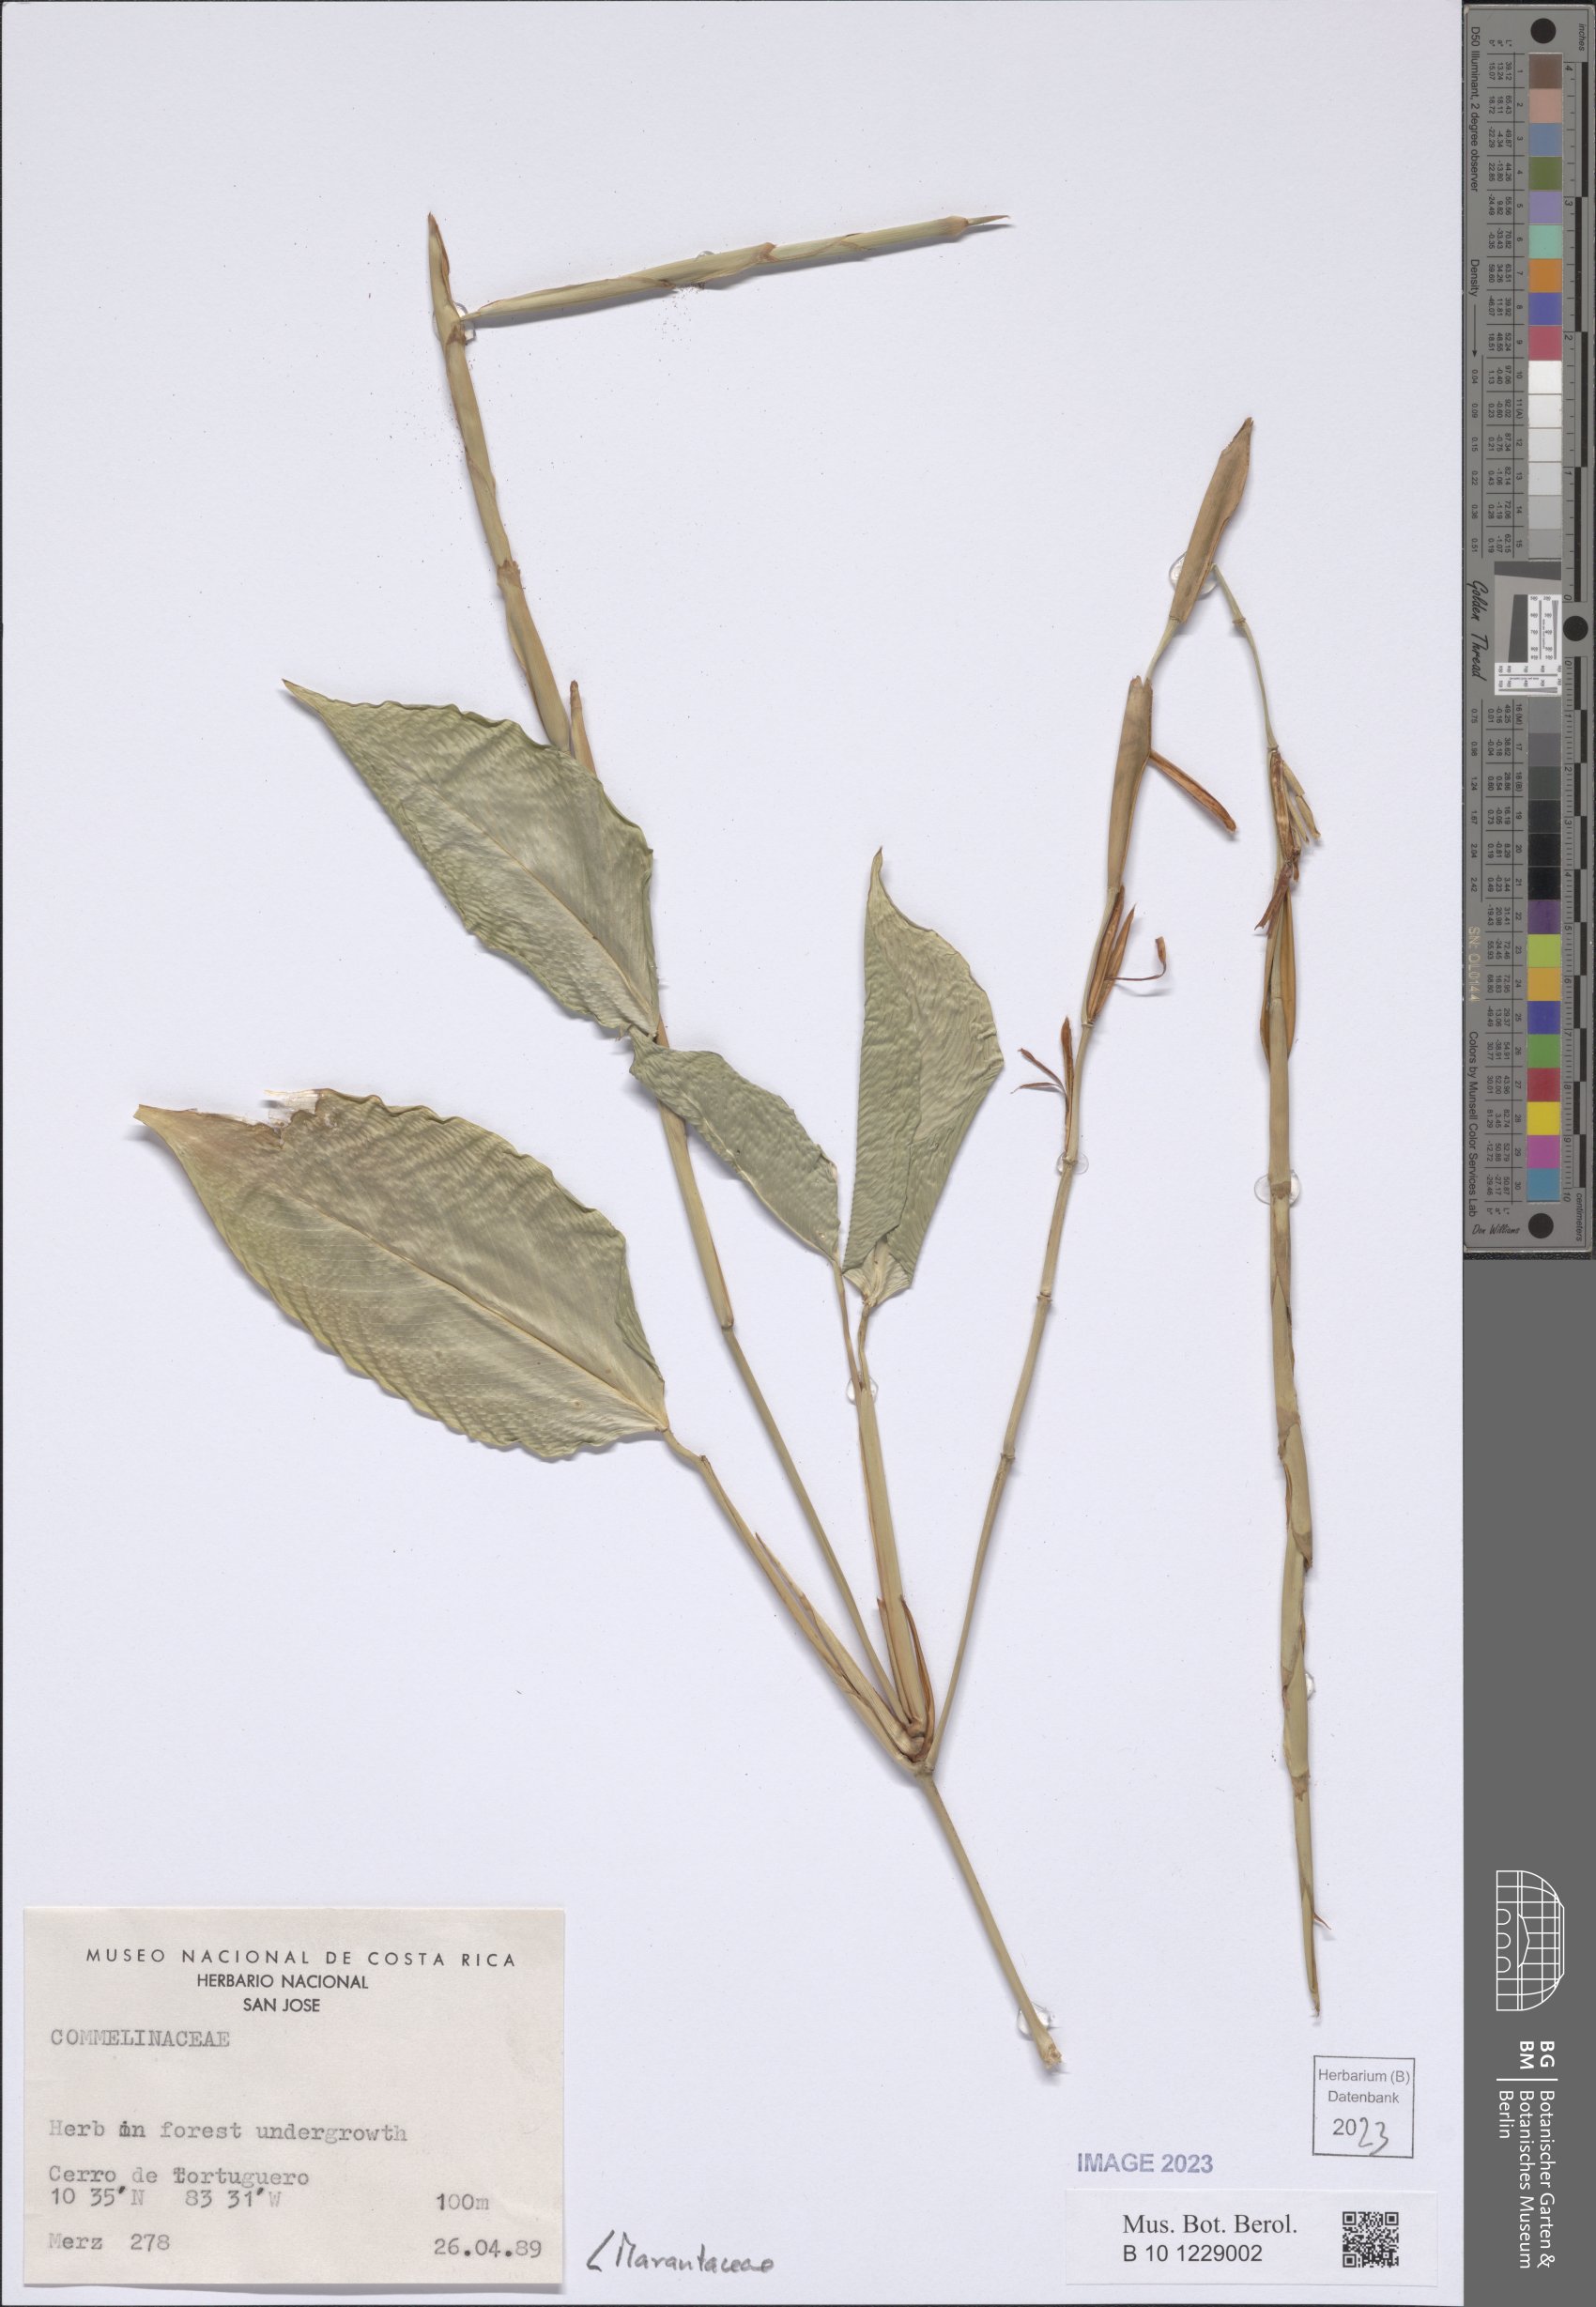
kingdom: Plantae
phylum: Tracheophyta
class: Liliopsida
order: Zingiberales
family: Marantaceae
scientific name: Marantaceae
